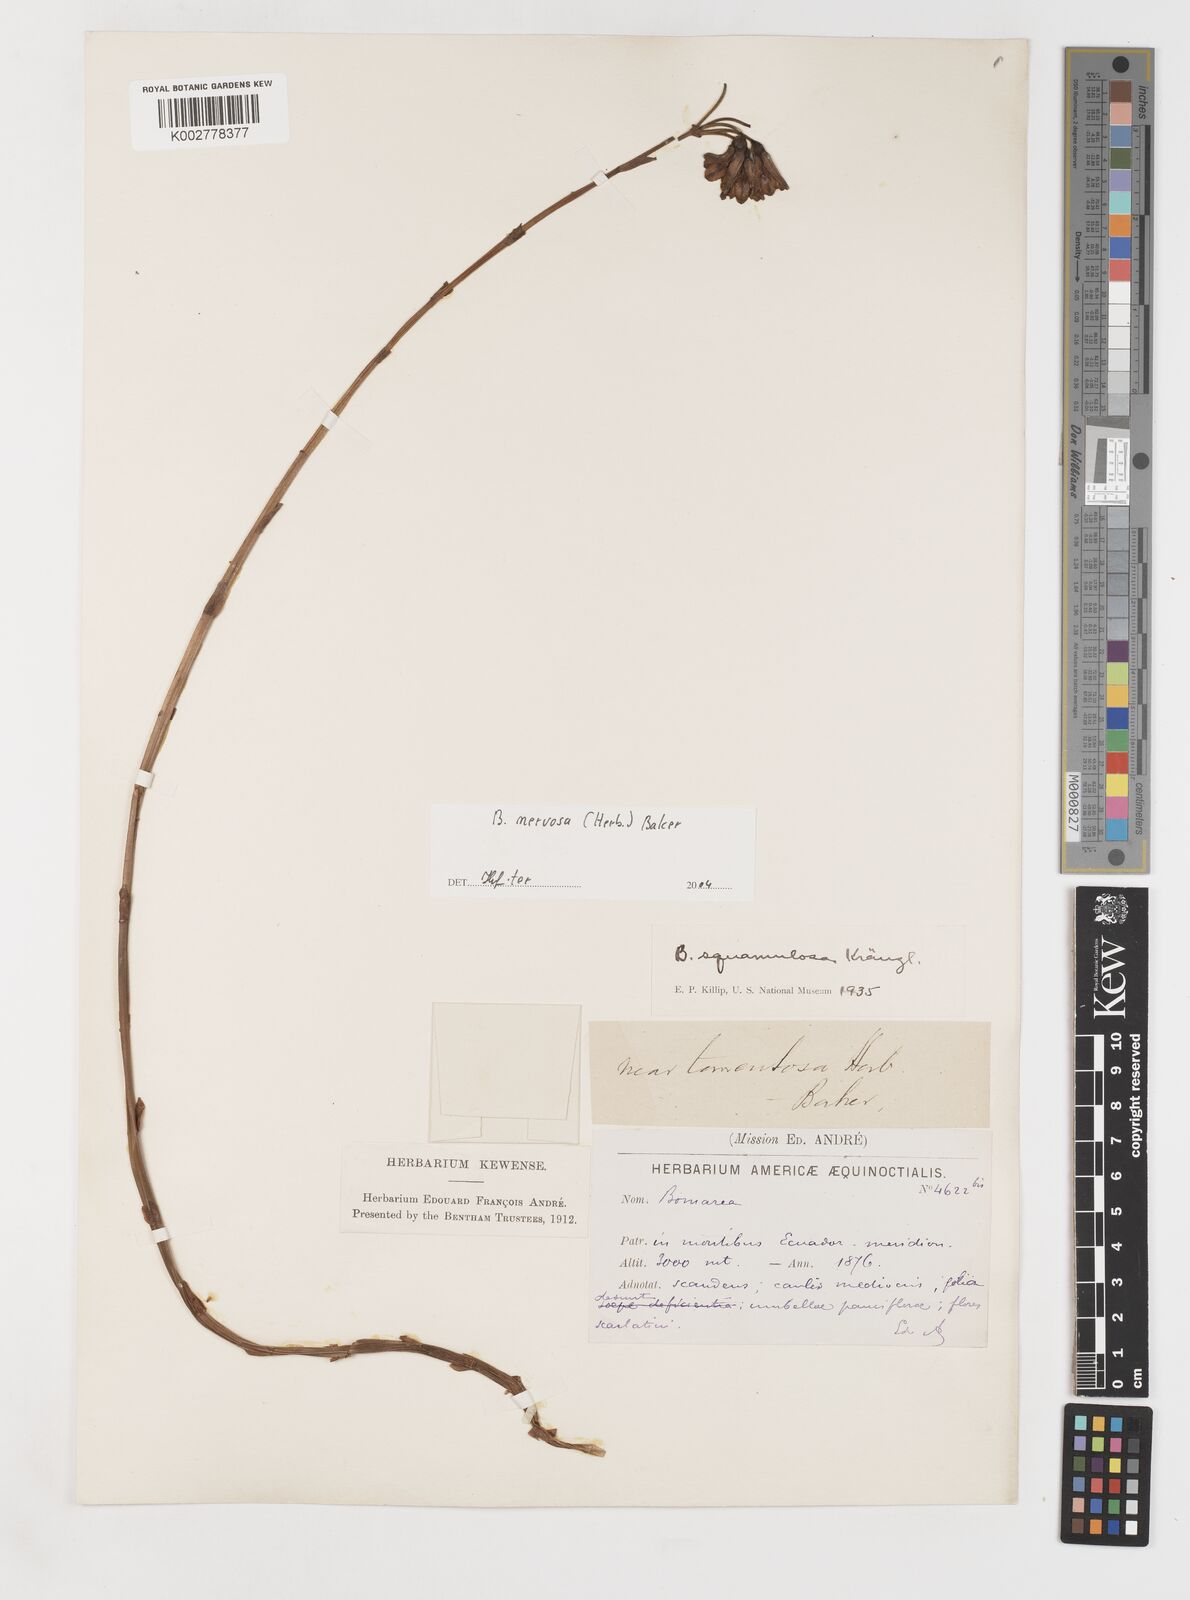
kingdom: Plantae
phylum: Tracheophyta
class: Liliopsida
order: Liliales
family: Alstroemeriaceae
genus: Bomarea
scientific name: Bomarea nervosa
